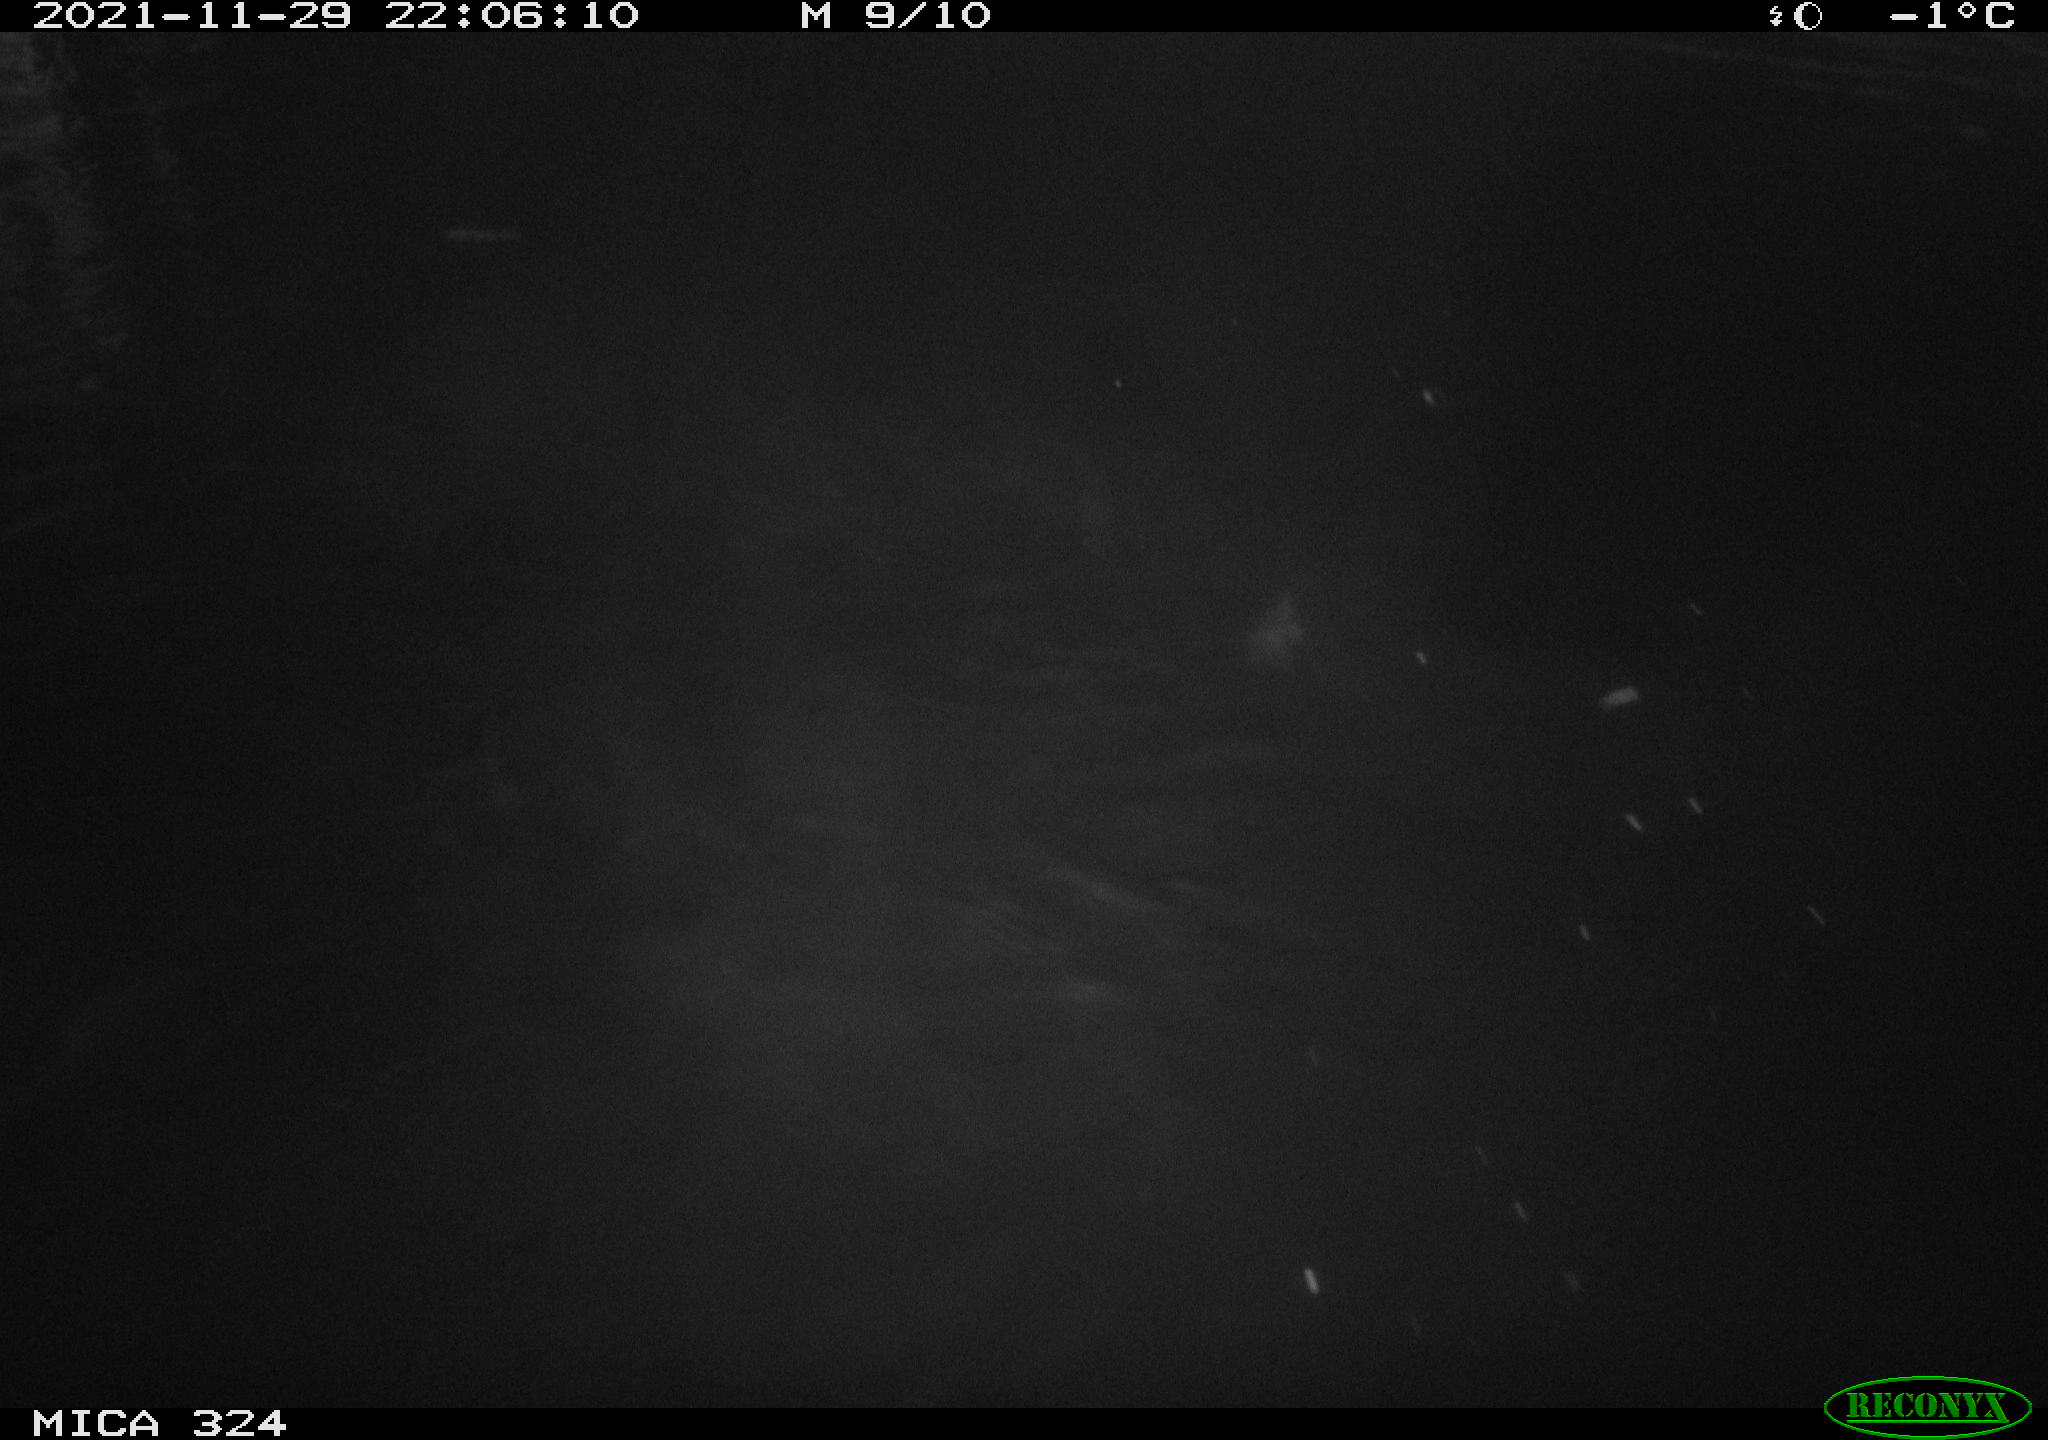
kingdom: Animalia
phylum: Chordata
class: Mammalia
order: Rodentia
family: Cricetidae
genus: Ondatra
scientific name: Ondatra zibethicus
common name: Muskrat
